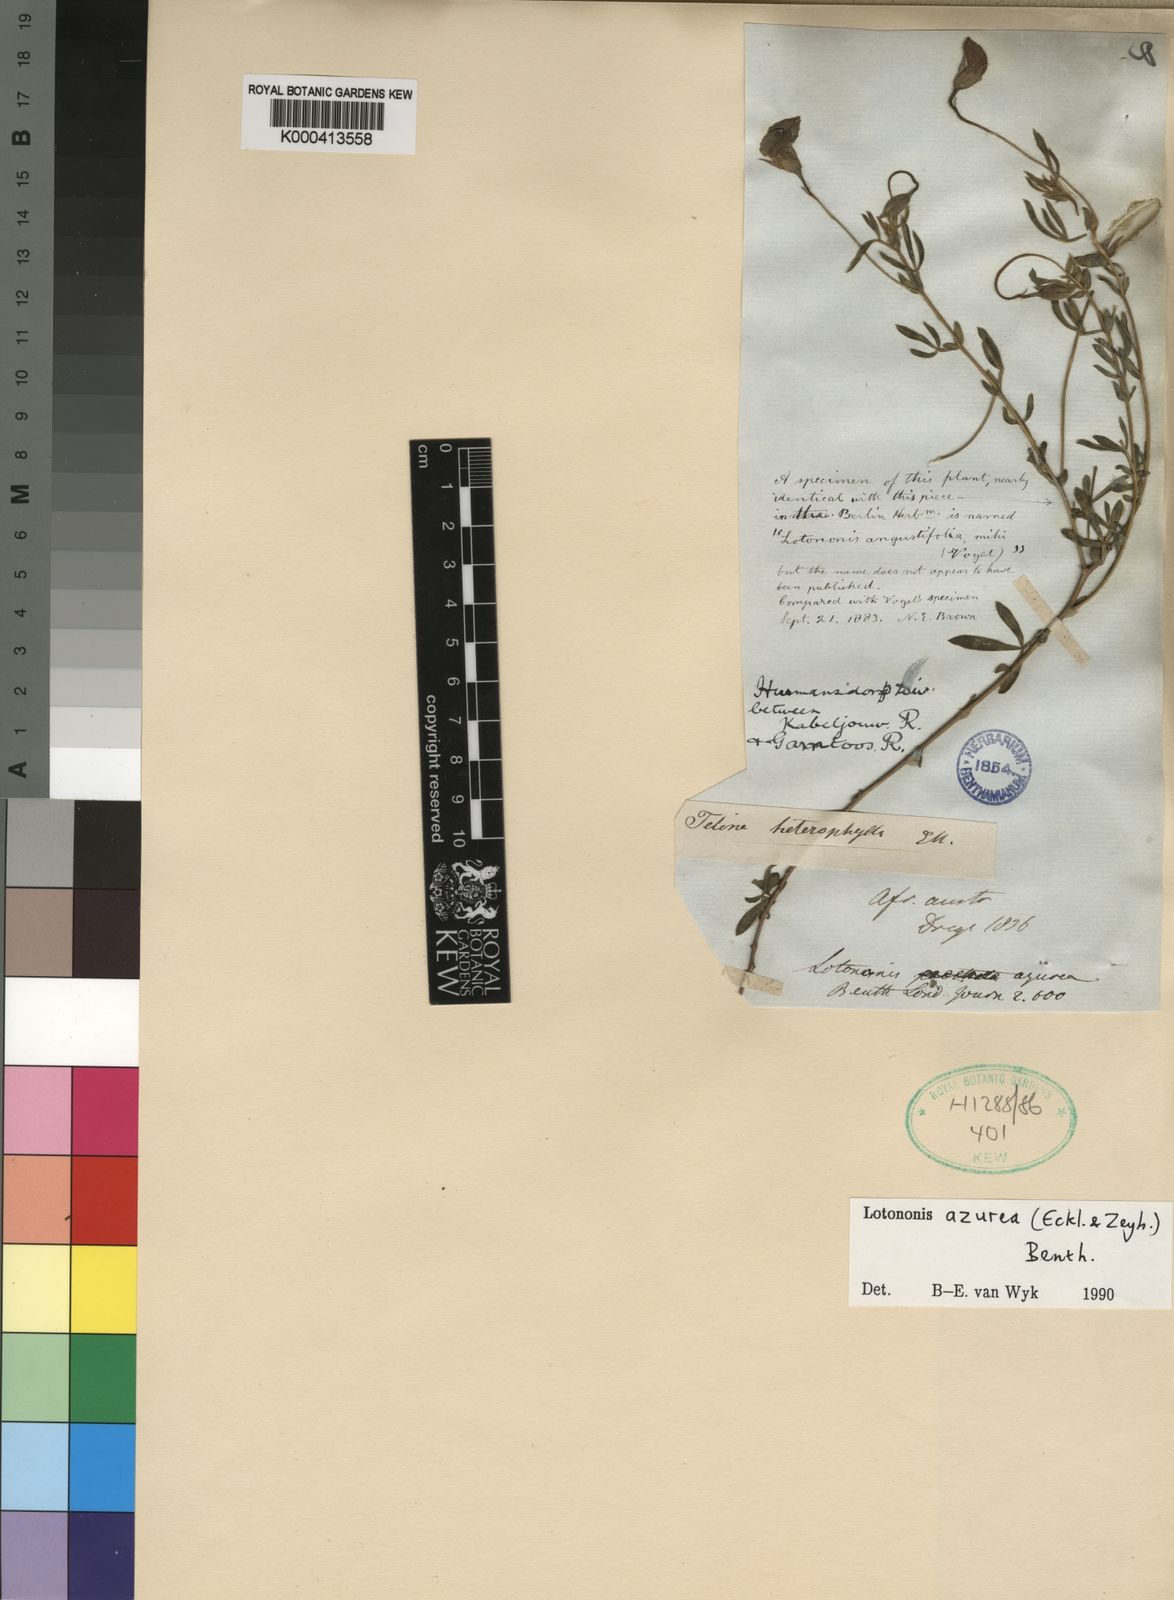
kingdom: Plantae
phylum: Tracheophyta
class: Magnoliopsida
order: Fabales
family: Fabaceae
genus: Lotononis
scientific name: Lotononis azurea
